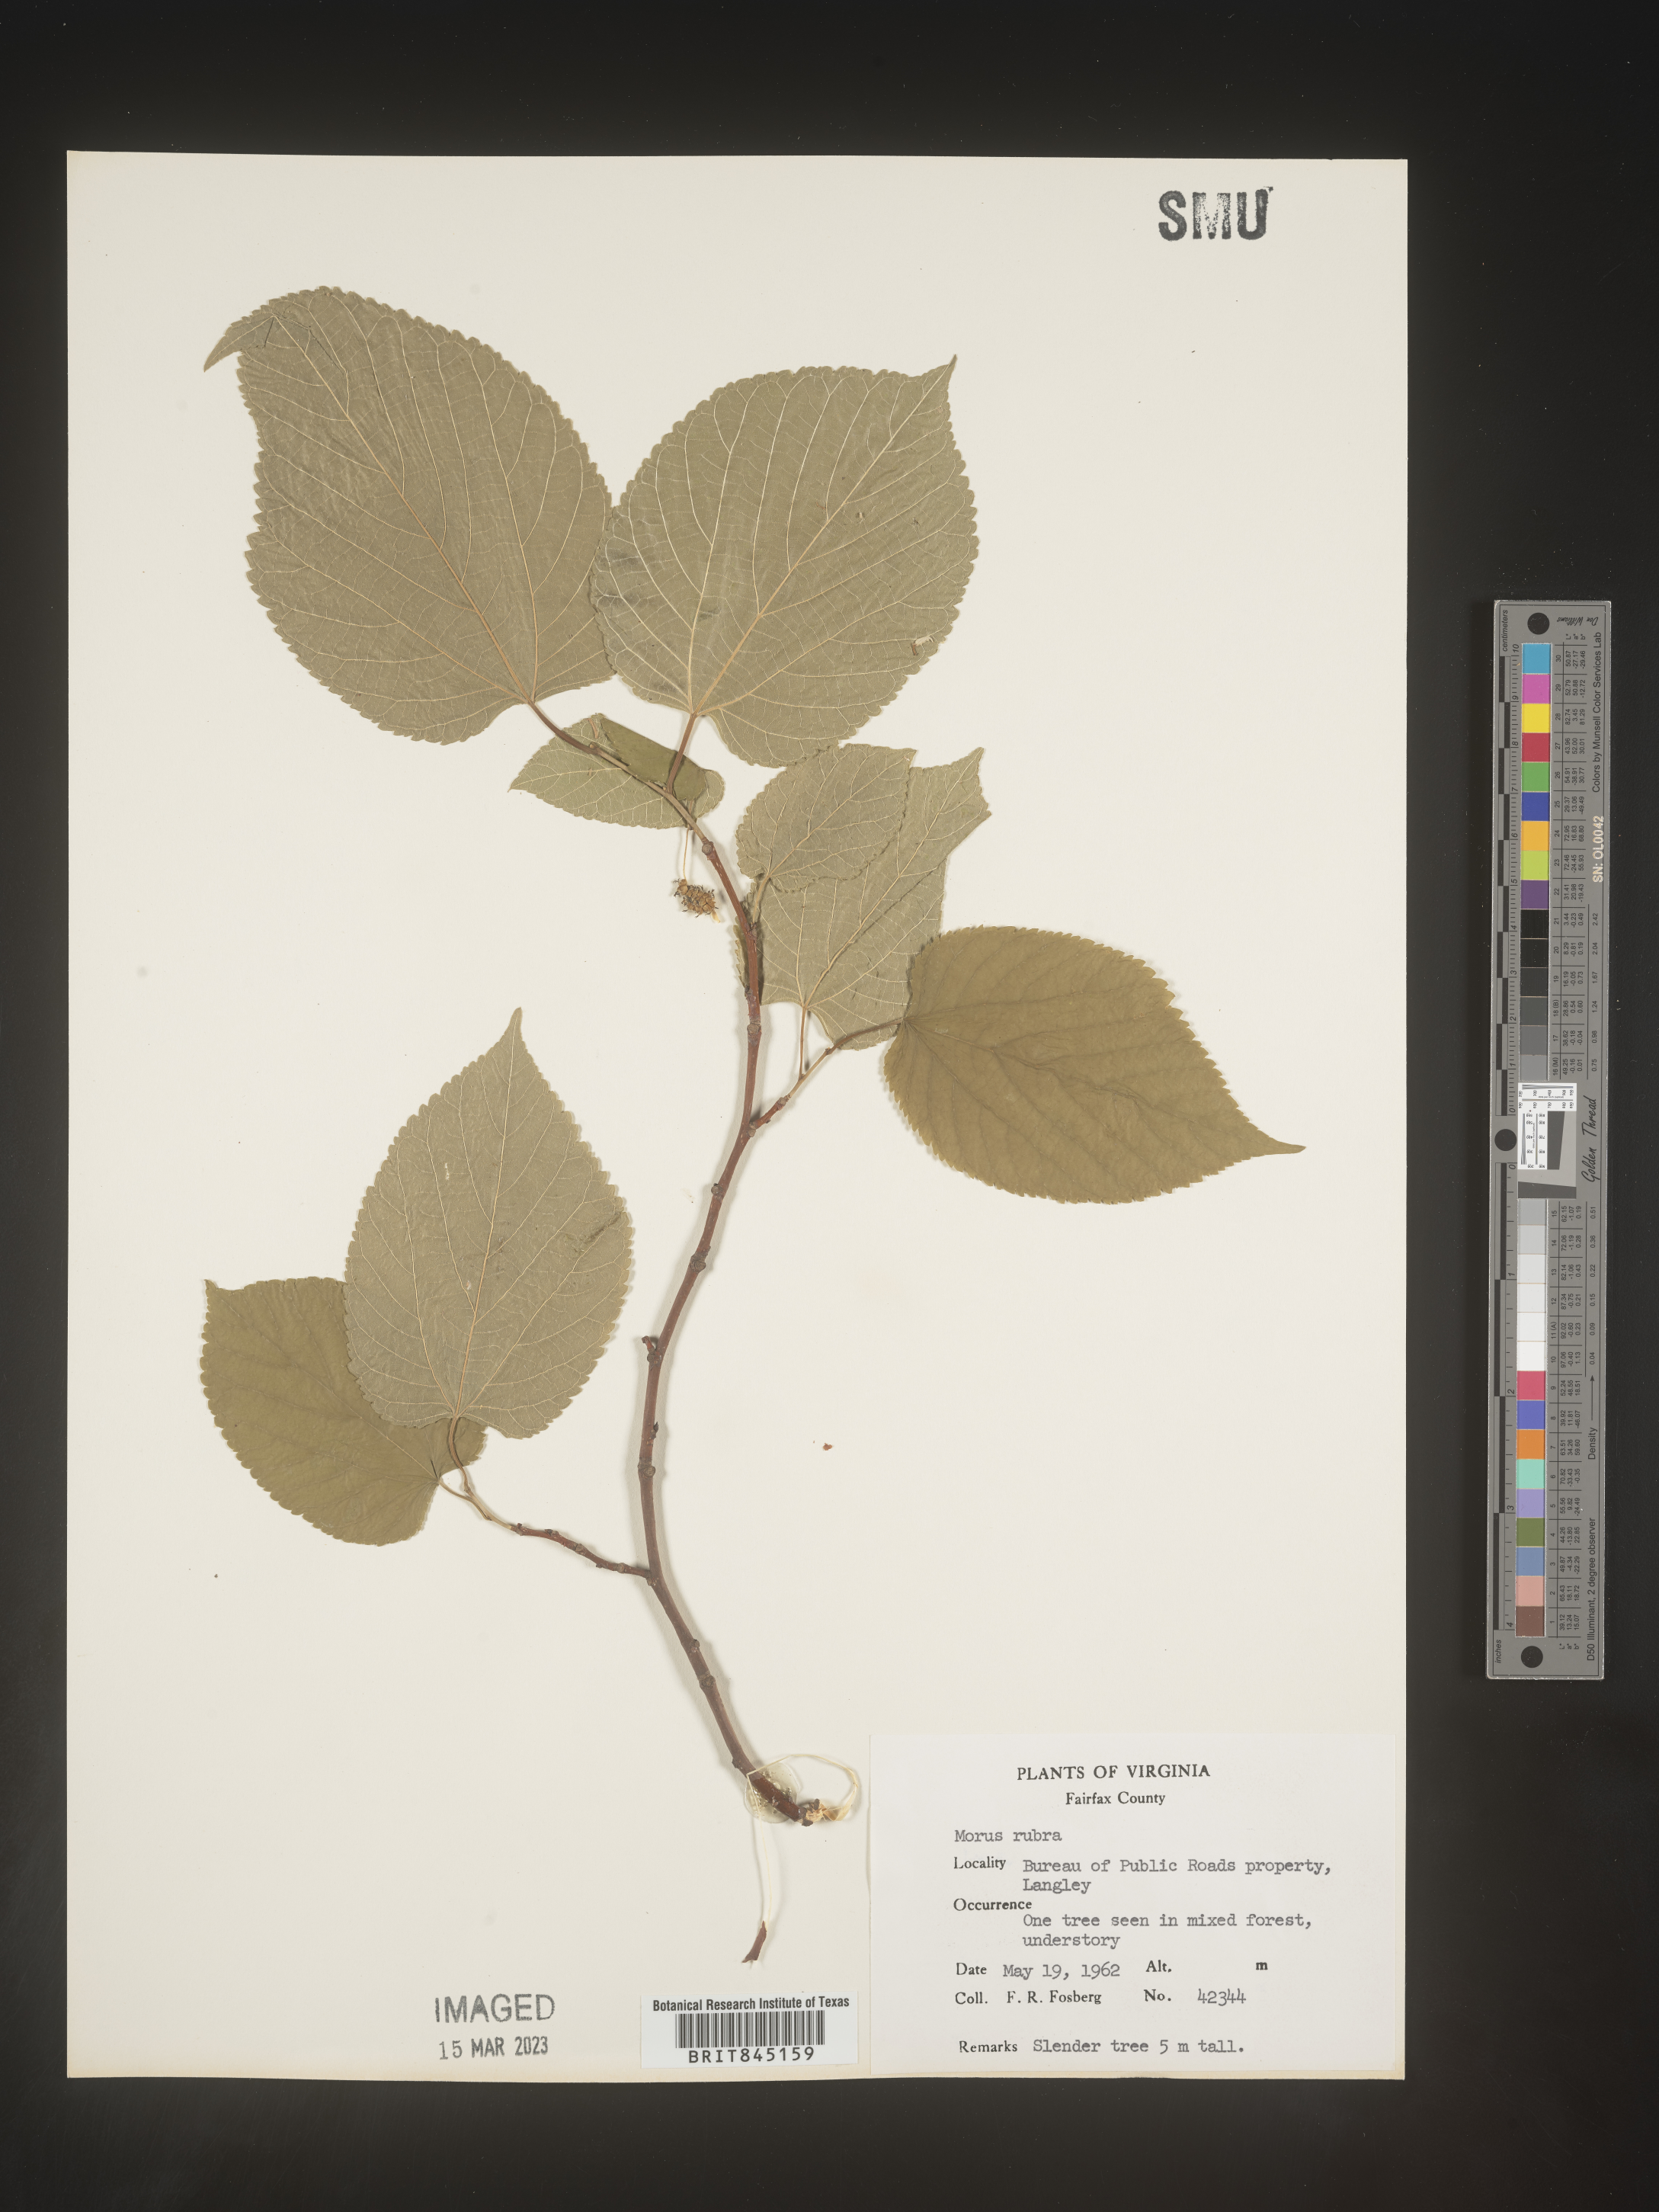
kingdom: Plantae
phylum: Tracheophyta
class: Magnoliopsida
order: Rosales
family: Moraceae
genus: Morus
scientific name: Morus rubra
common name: Red mulberry
